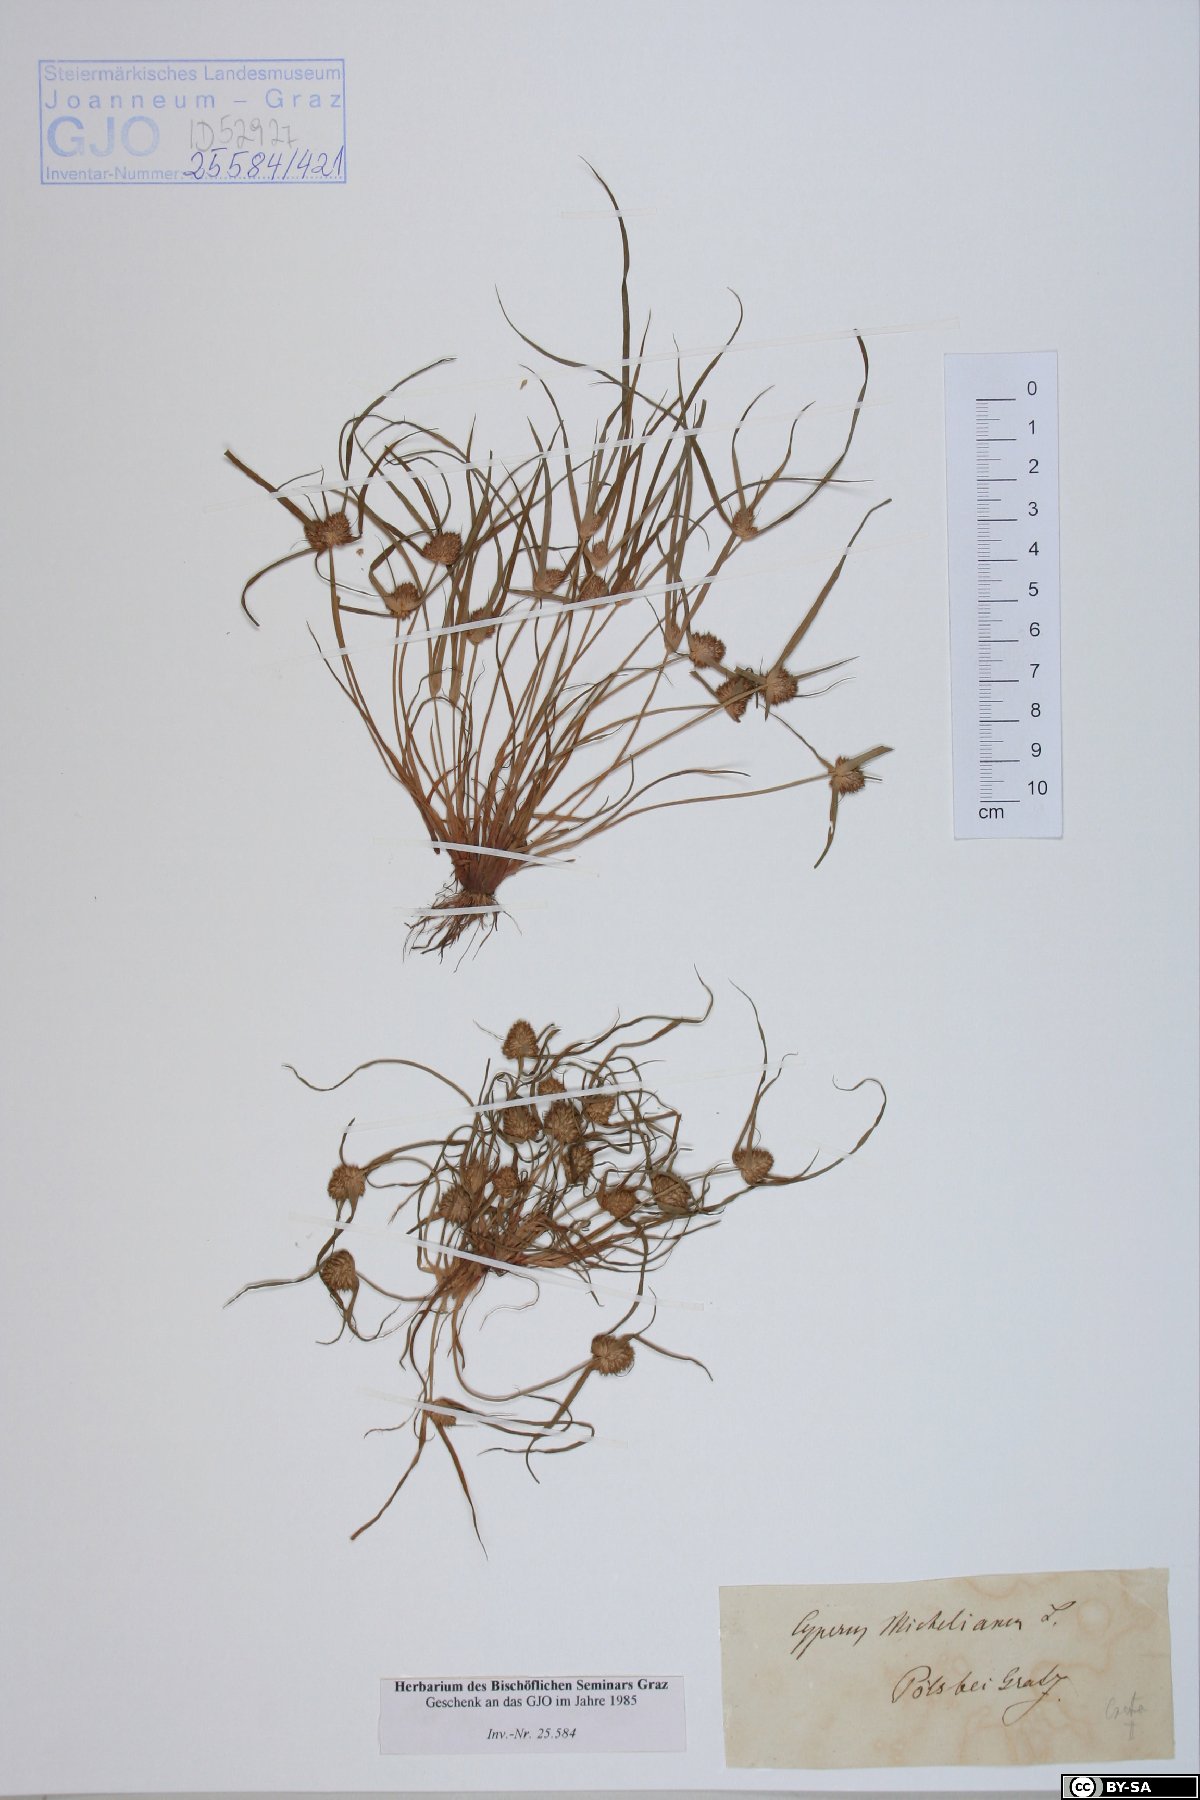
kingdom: Plantae
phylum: Tracheophyta
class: Liliopsida
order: Poales
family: Cyperaceae
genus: Cyperus
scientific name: Cyperus michelianus
